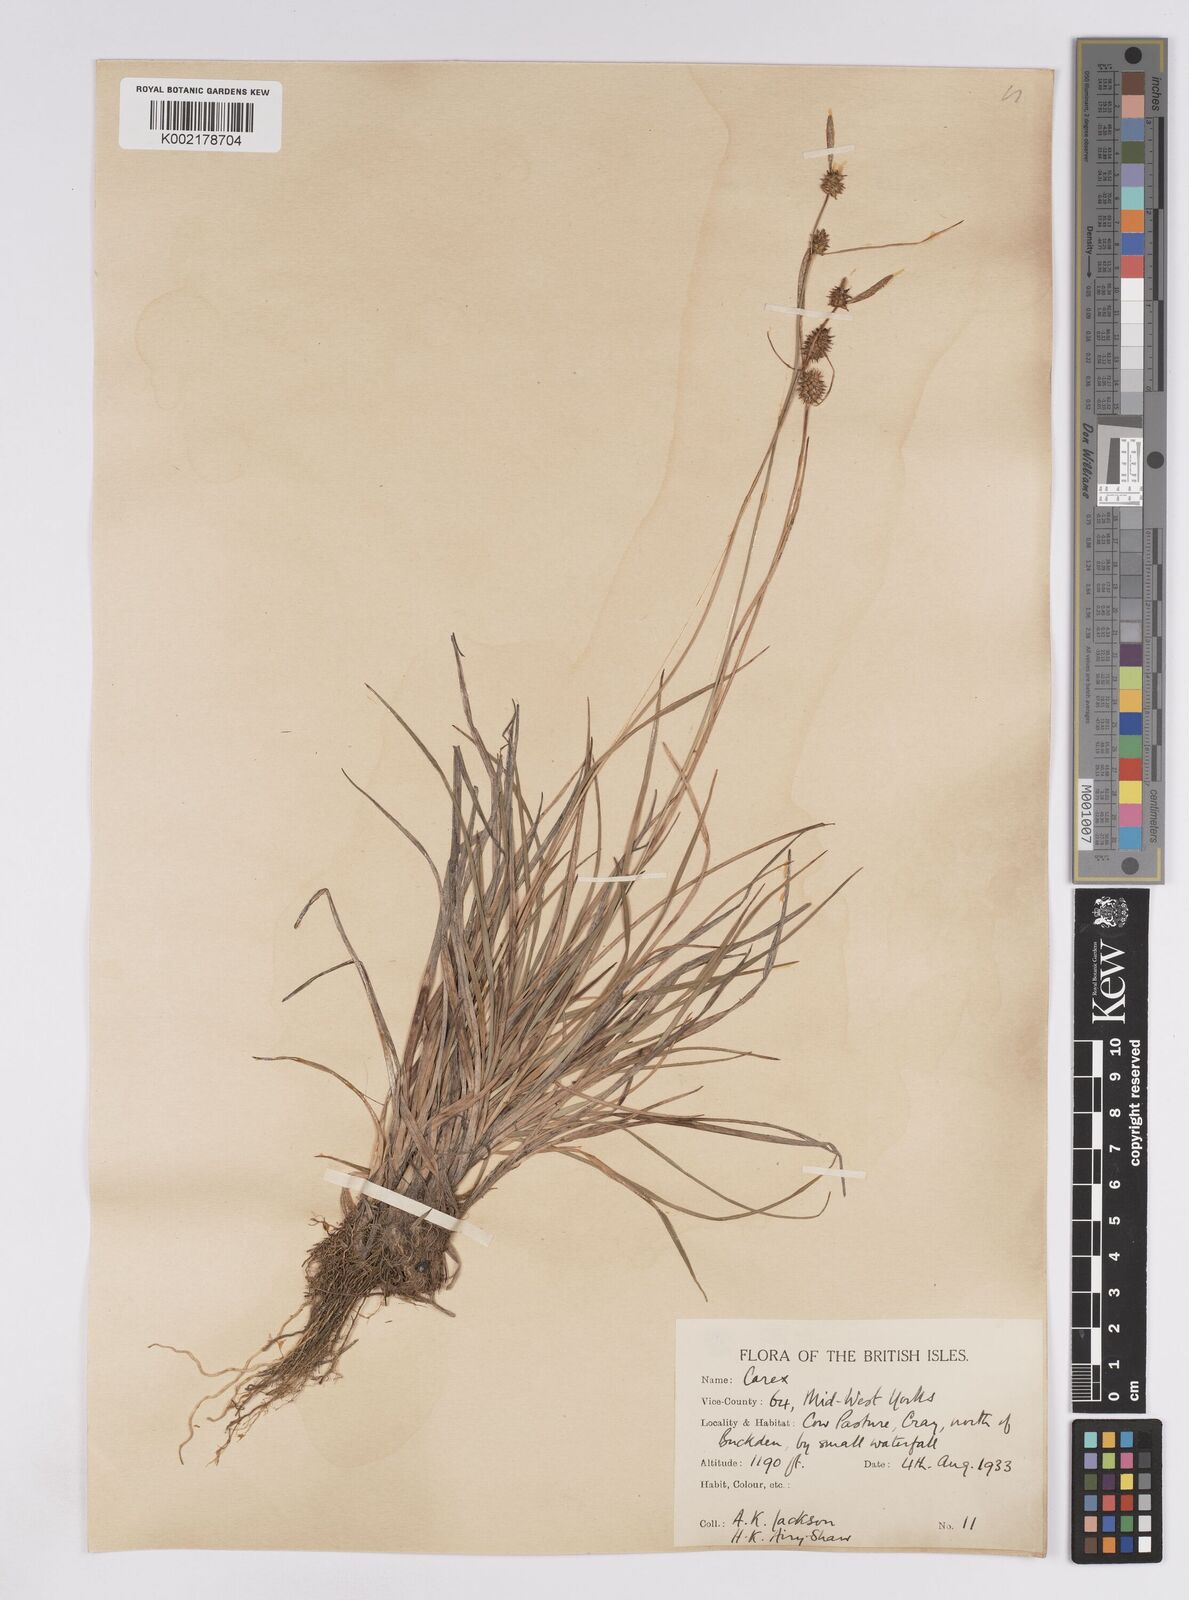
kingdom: Plantae
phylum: Tracheophyta
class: Liliopsida
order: Poales
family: Cyperaceae
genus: Carex
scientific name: Carex lepidocarpa
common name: Long-stalked yellow-sedge
